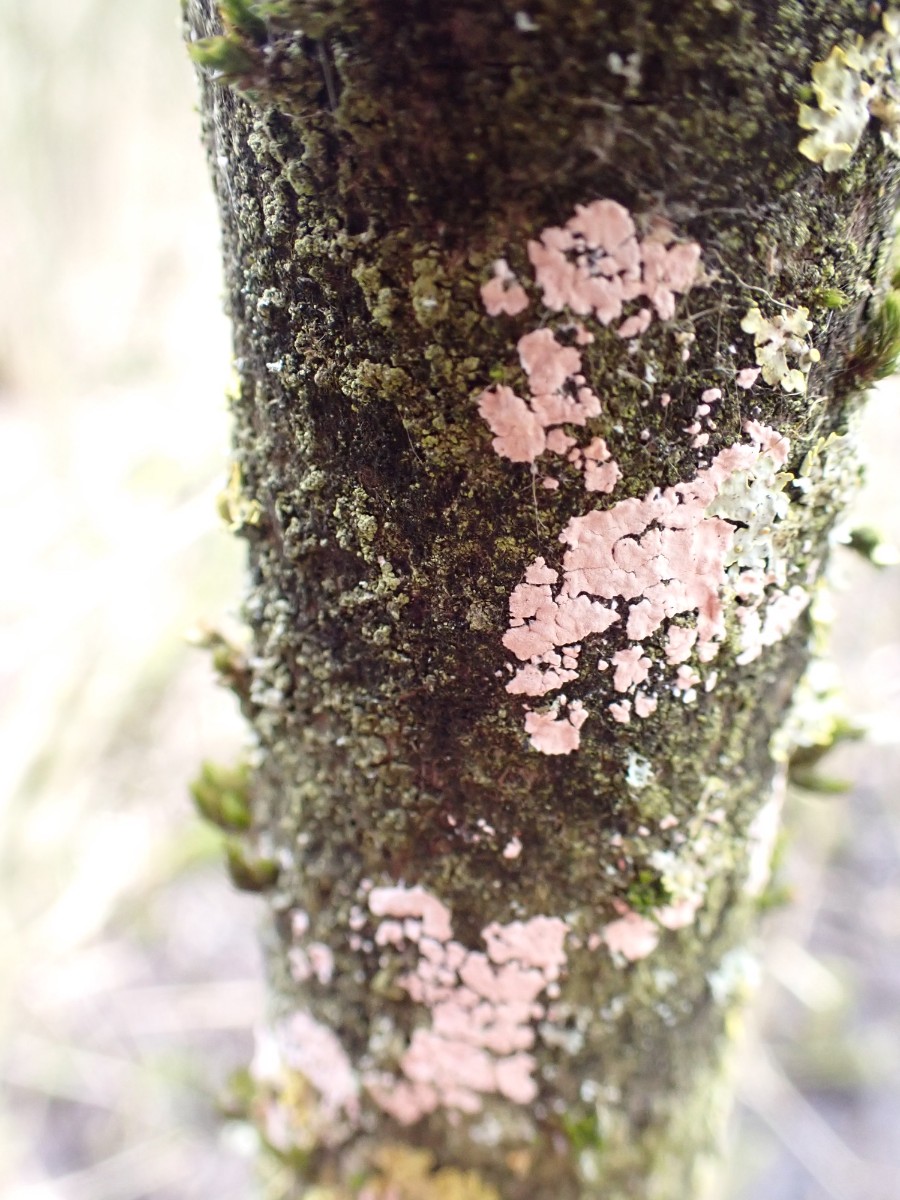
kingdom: Fungi
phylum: Basidiomycota
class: Agaricomycetes
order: Corticiales
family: Corticiaceae
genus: Corticium
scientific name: Corticium roseum
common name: rosa barkskind
